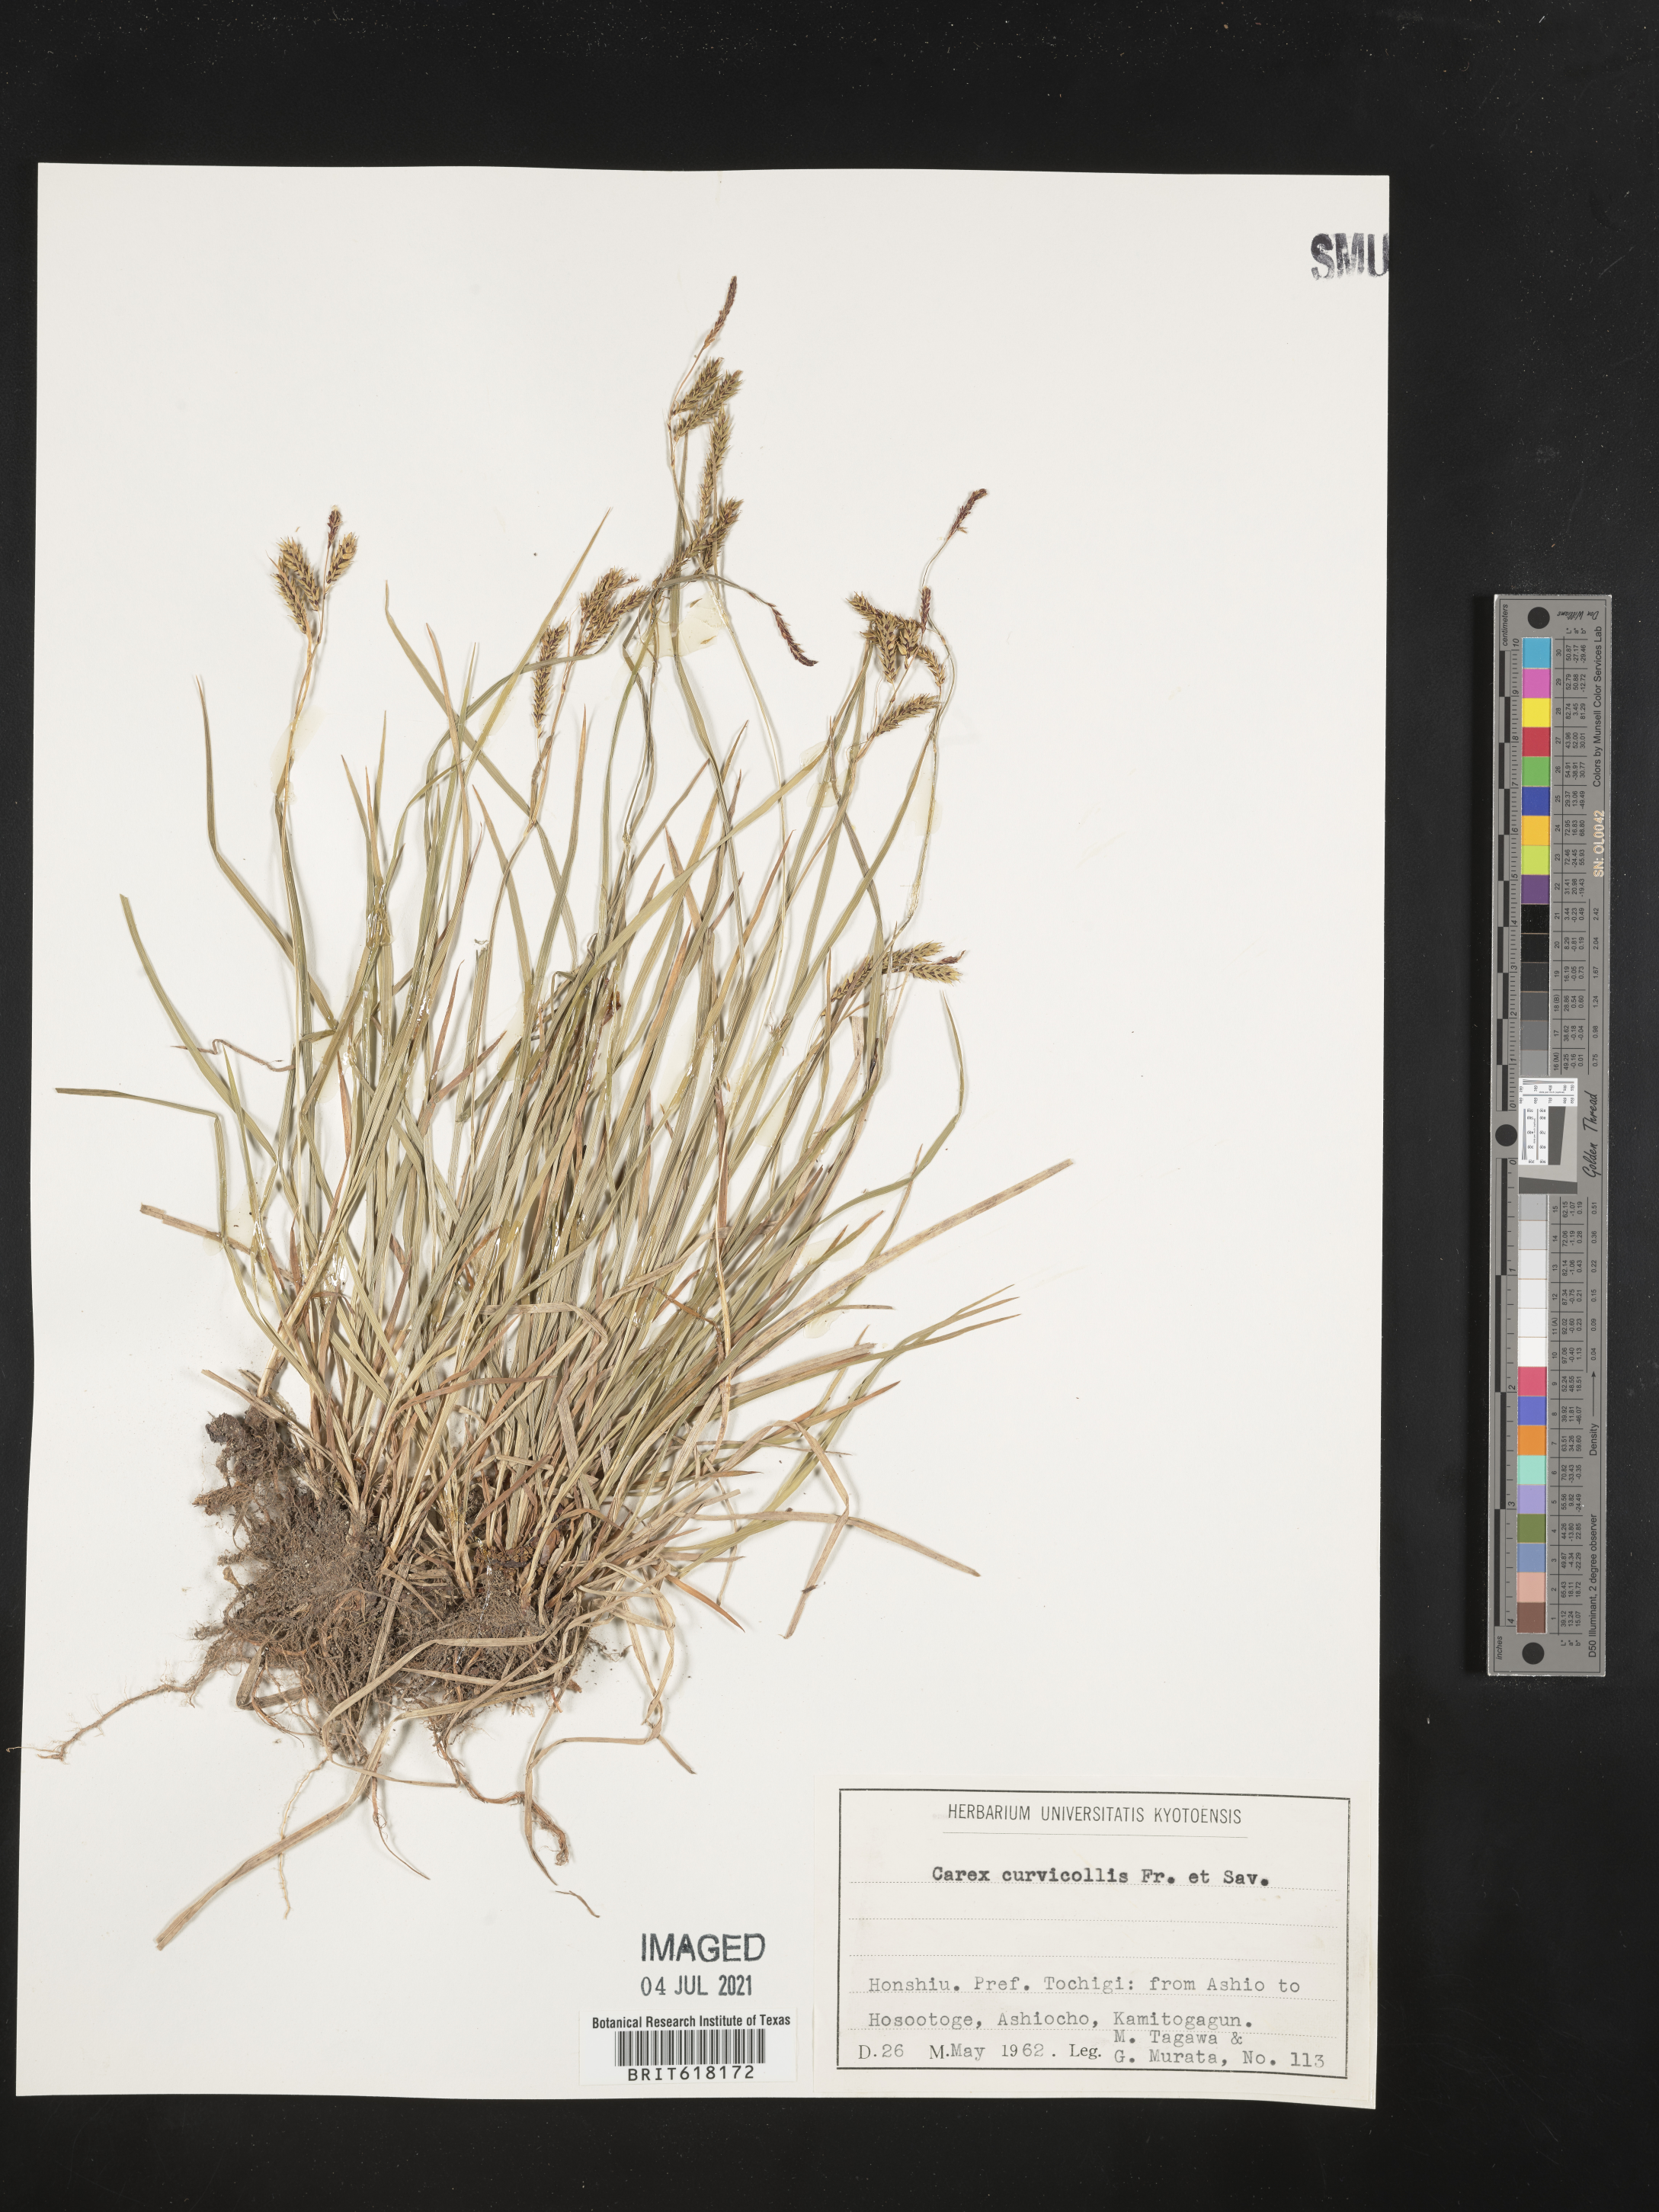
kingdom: Plantae
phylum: Tracheophyta
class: Liliopsida
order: Poales
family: Cyperaceae
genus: Carex
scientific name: Carex curvicollis
